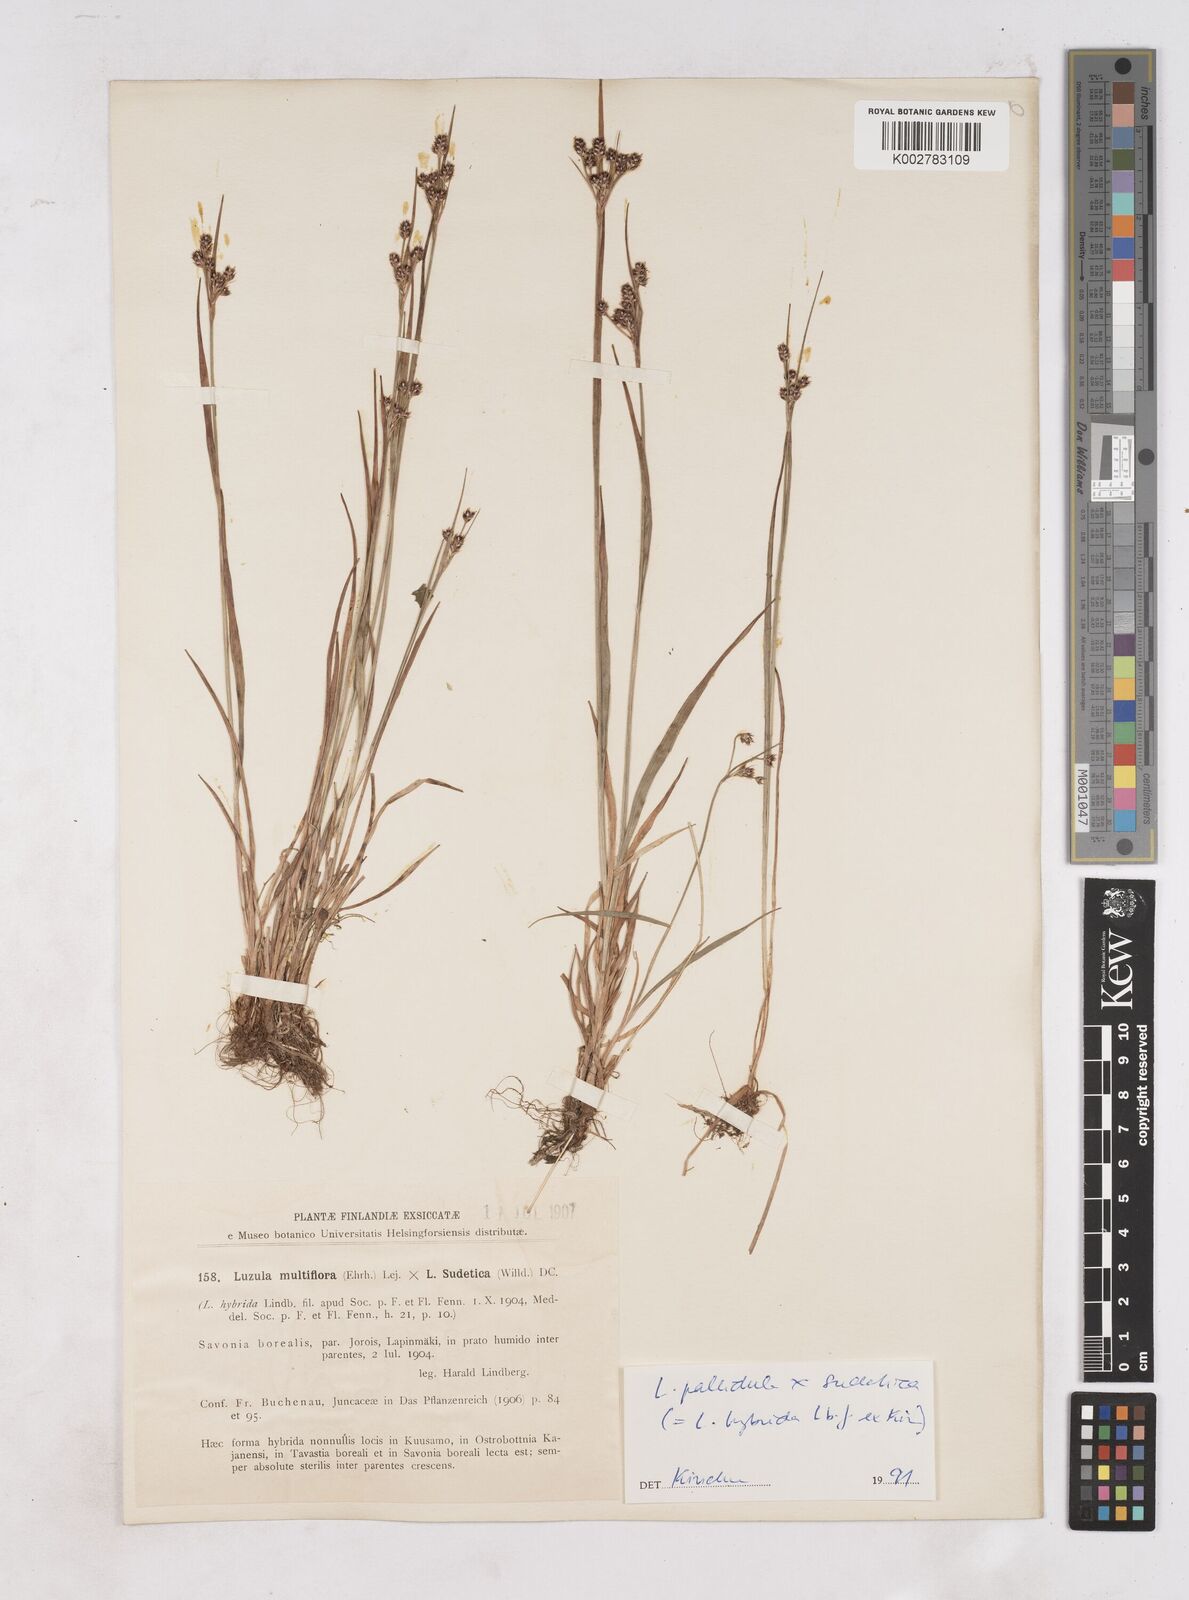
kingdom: Plantae
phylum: Tracheophyta
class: Liliopsida
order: Poales
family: Juncaceae
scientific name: Juncaceae
